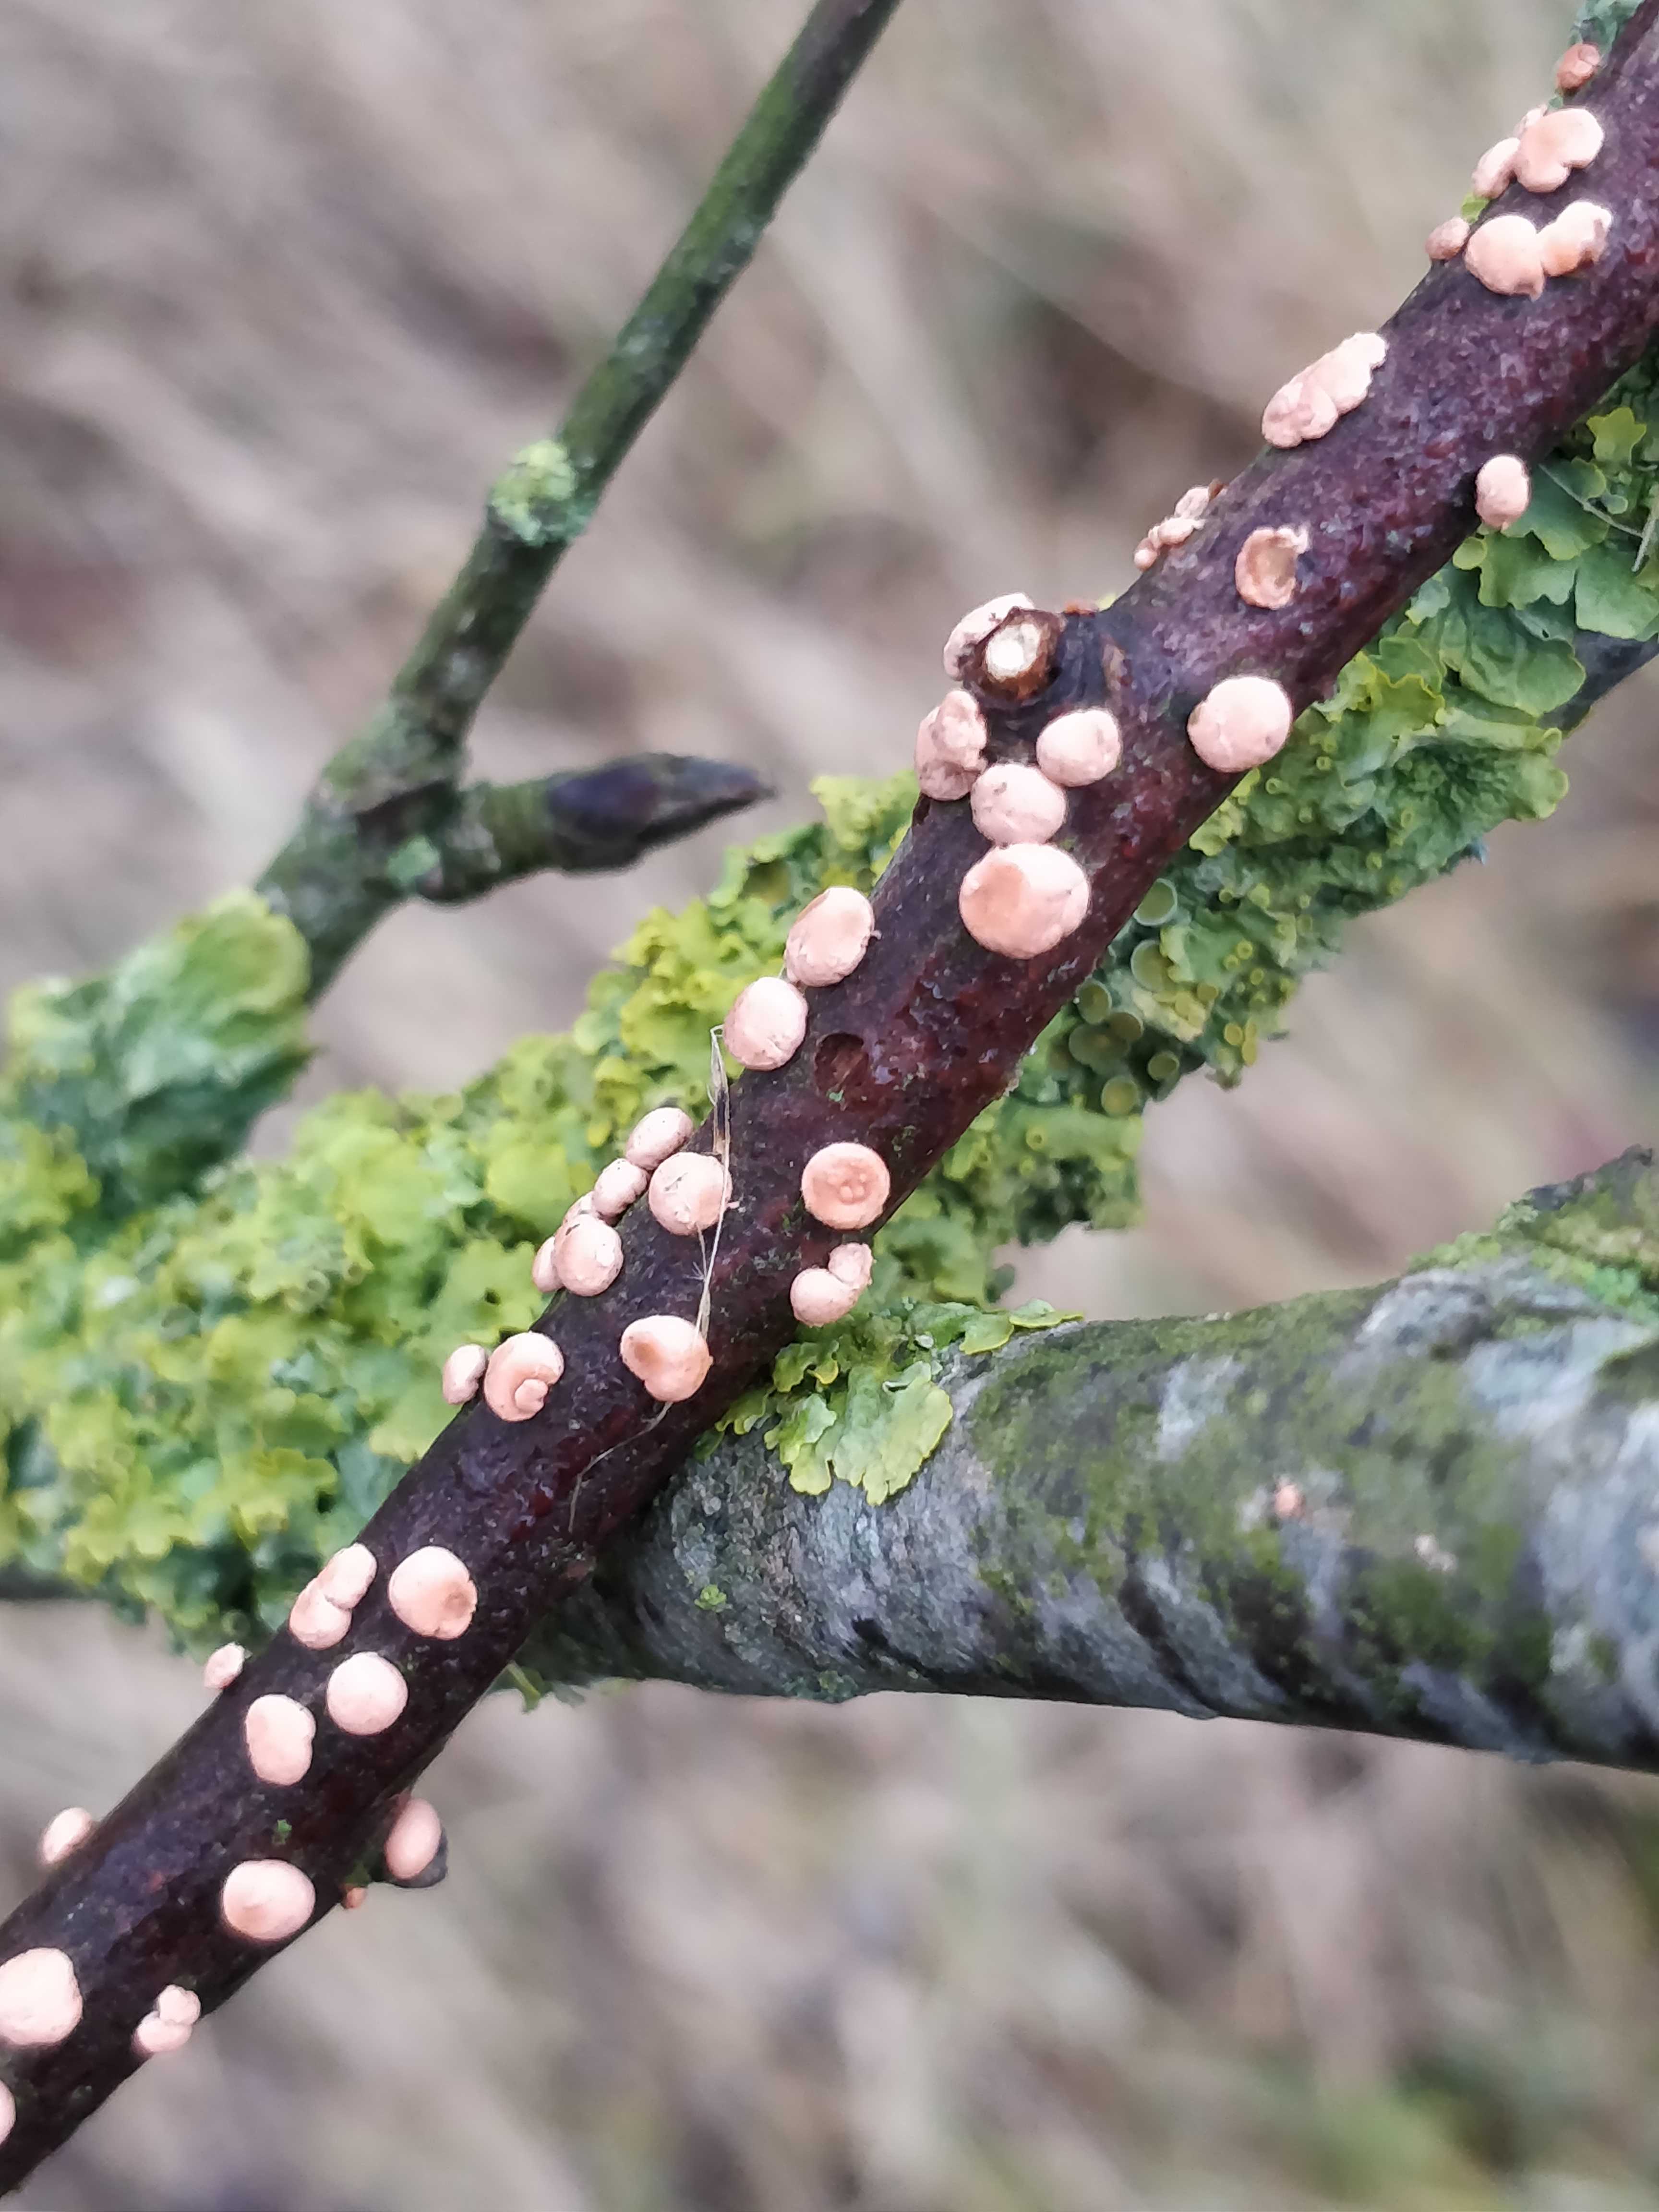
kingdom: Fungi
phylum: Ascomycota
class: Sordariomycetes
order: Hypocreales
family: Nectriaceae
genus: Nectria
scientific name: Nectria cinnabarina
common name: almindelig cinnobersvamp
